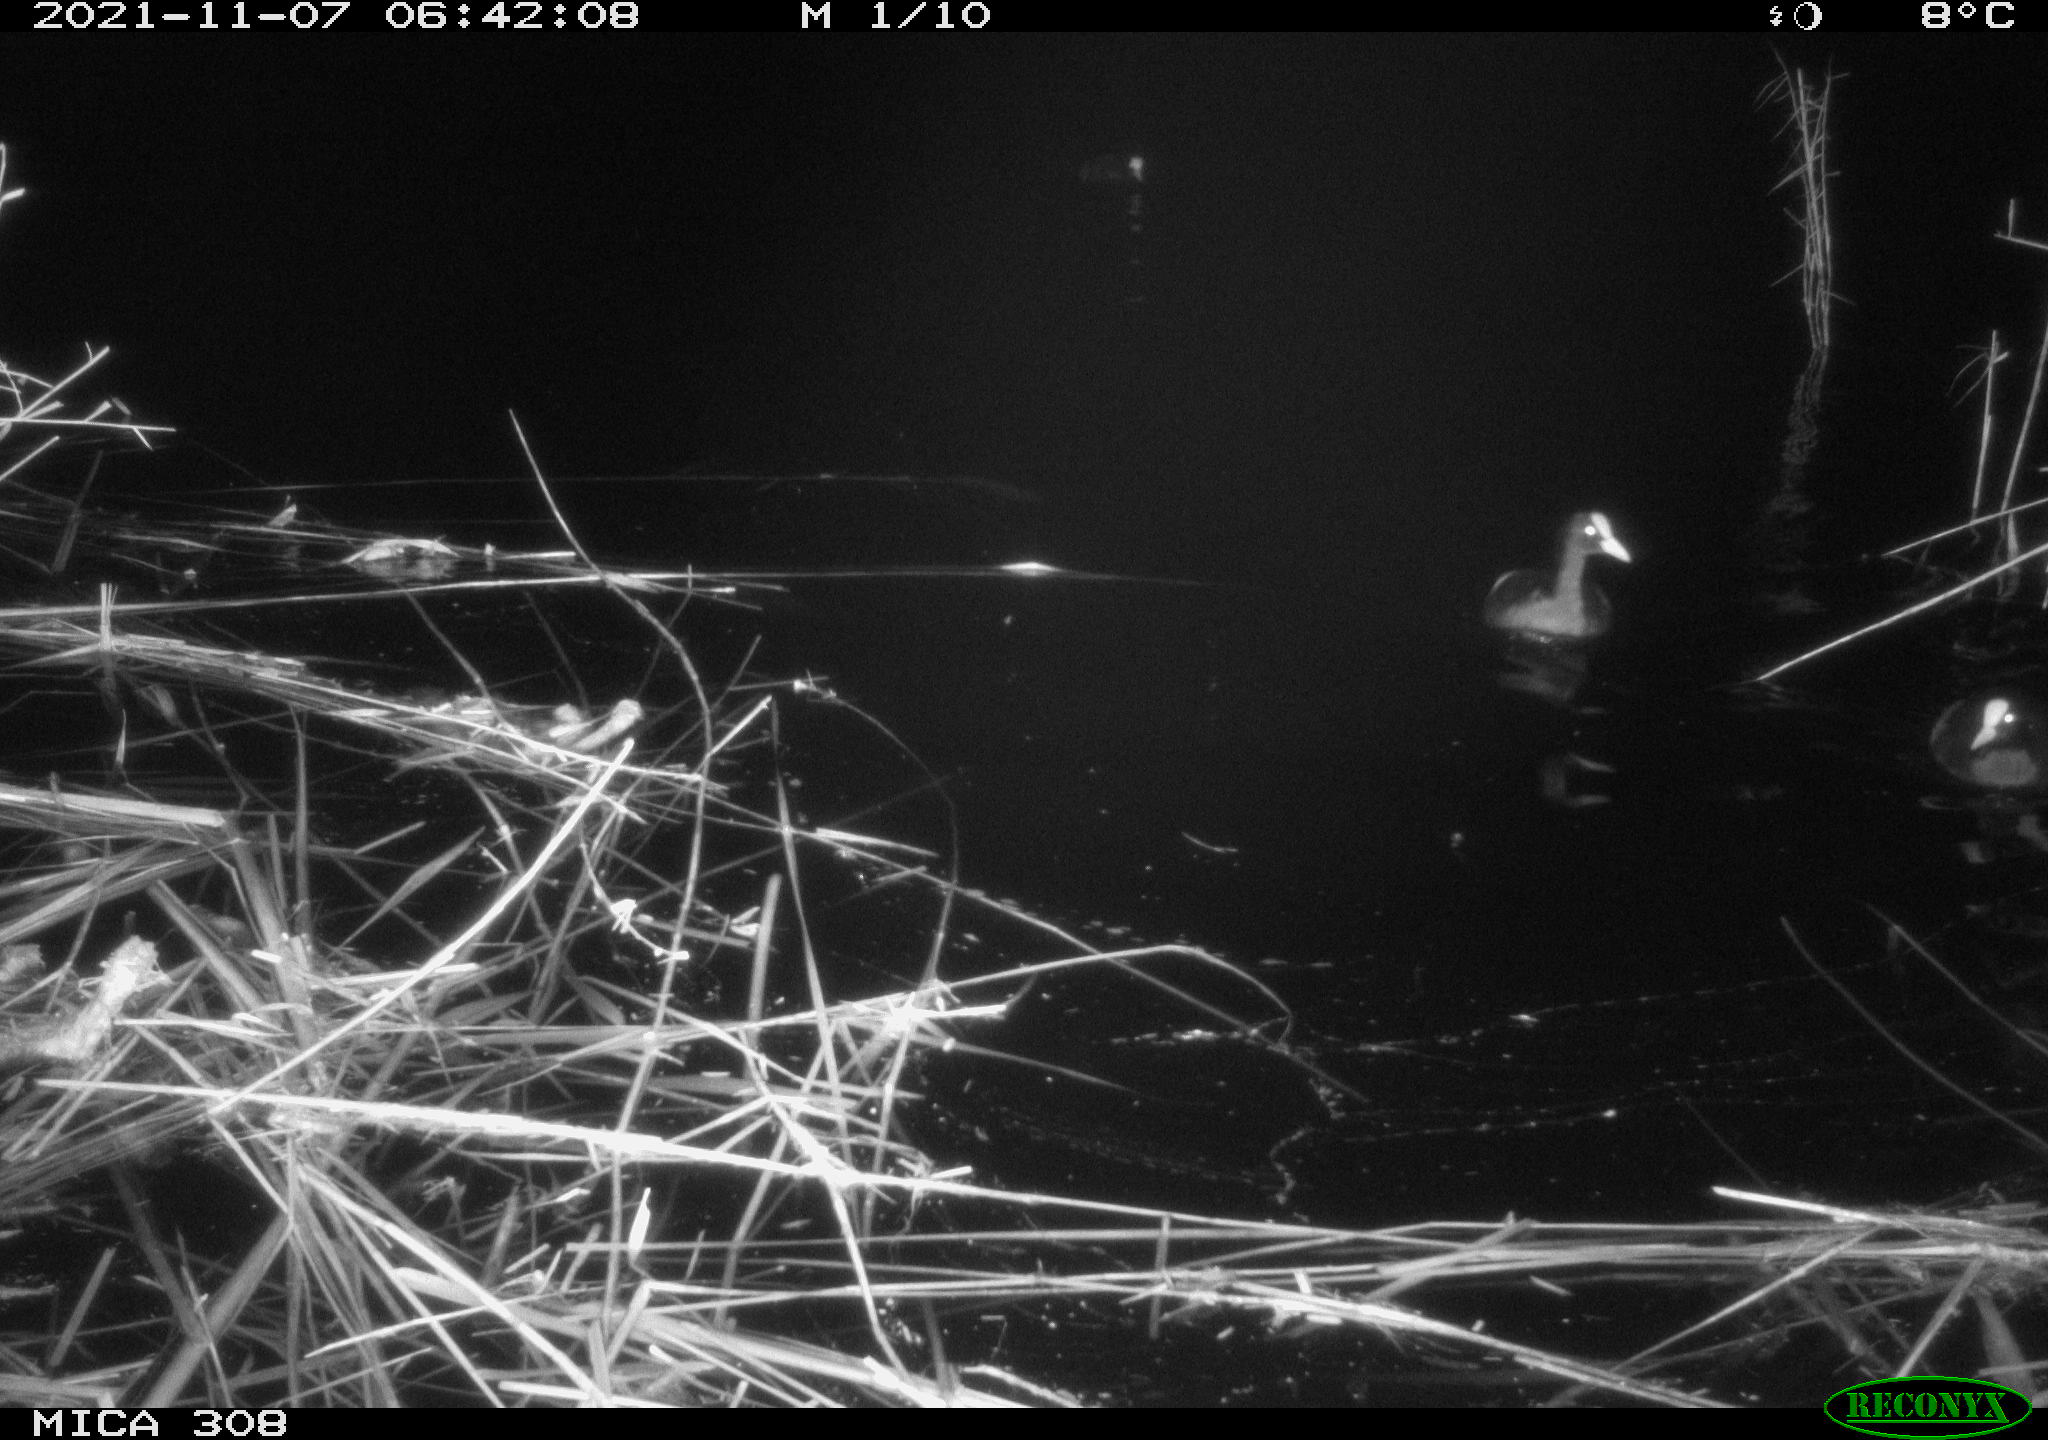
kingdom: Animalia
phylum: Chordata
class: Aves
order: Gruiformes
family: Rallidae
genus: Fulica
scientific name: Fulica atra
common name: Eurasian coot
